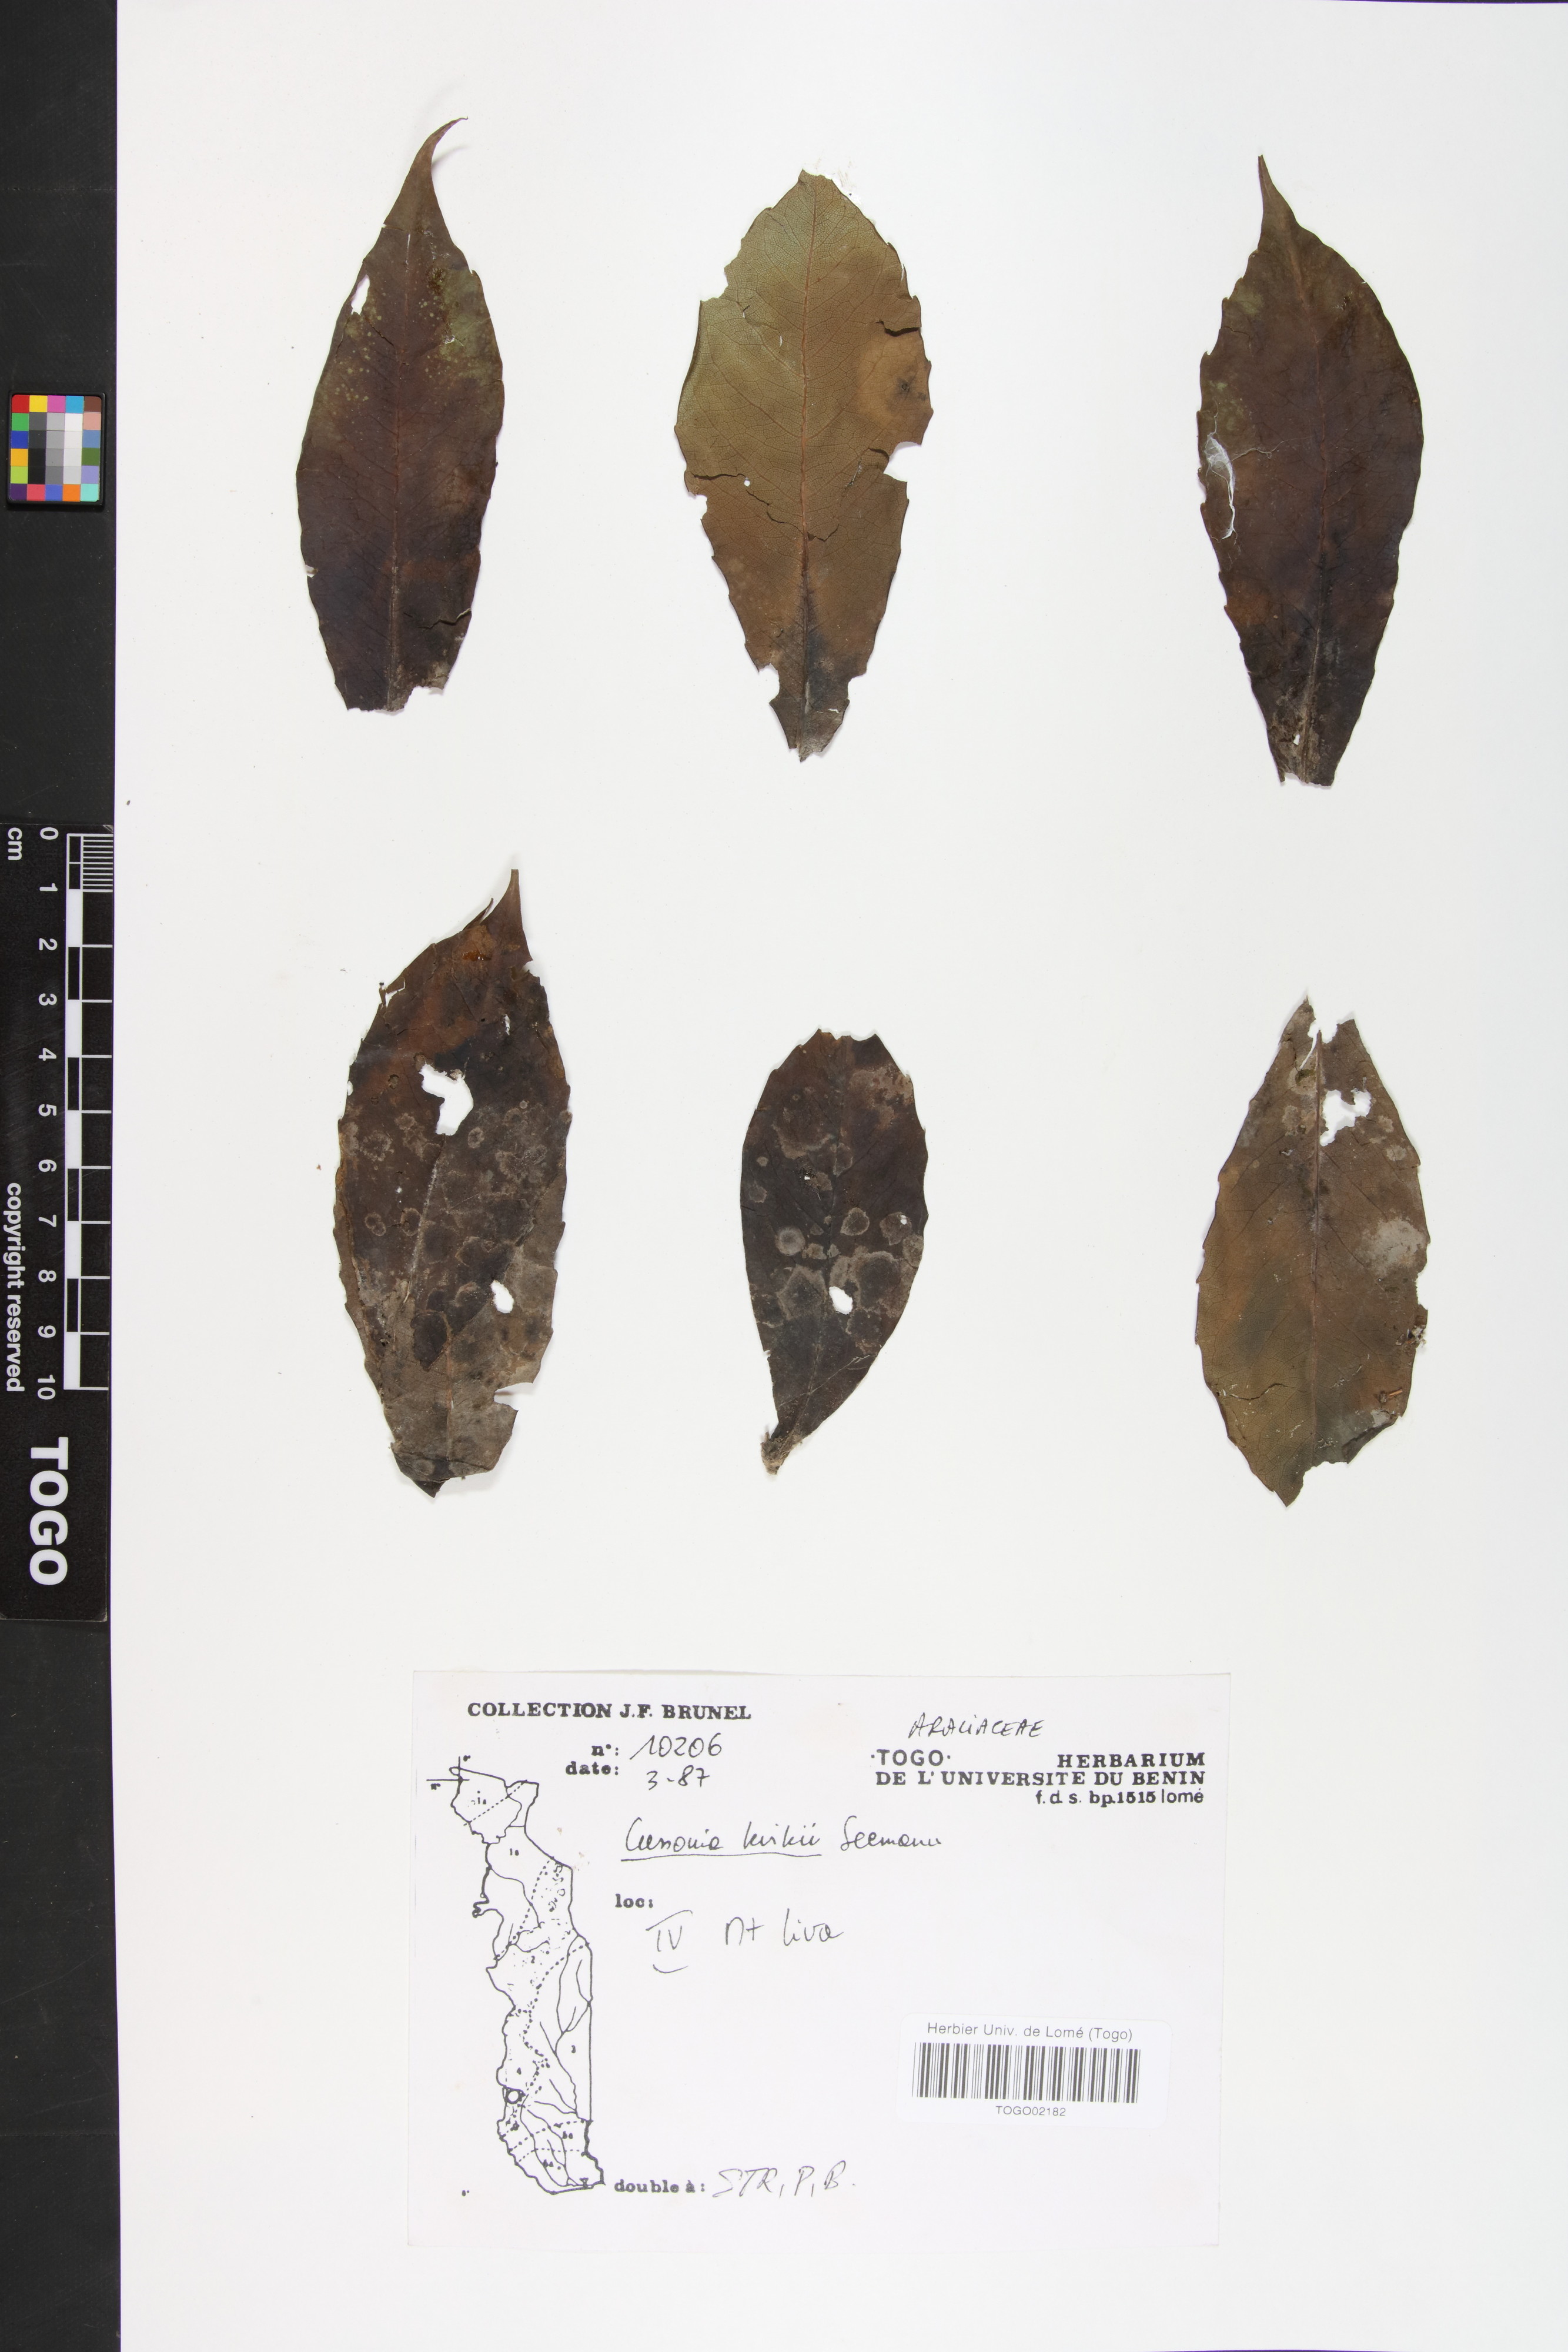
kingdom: Plantae
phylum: Tracheophyta
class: Magnoliopsida
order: Apiales
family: Araliaceae
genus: Cussonia
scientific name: Cussonia arborea
